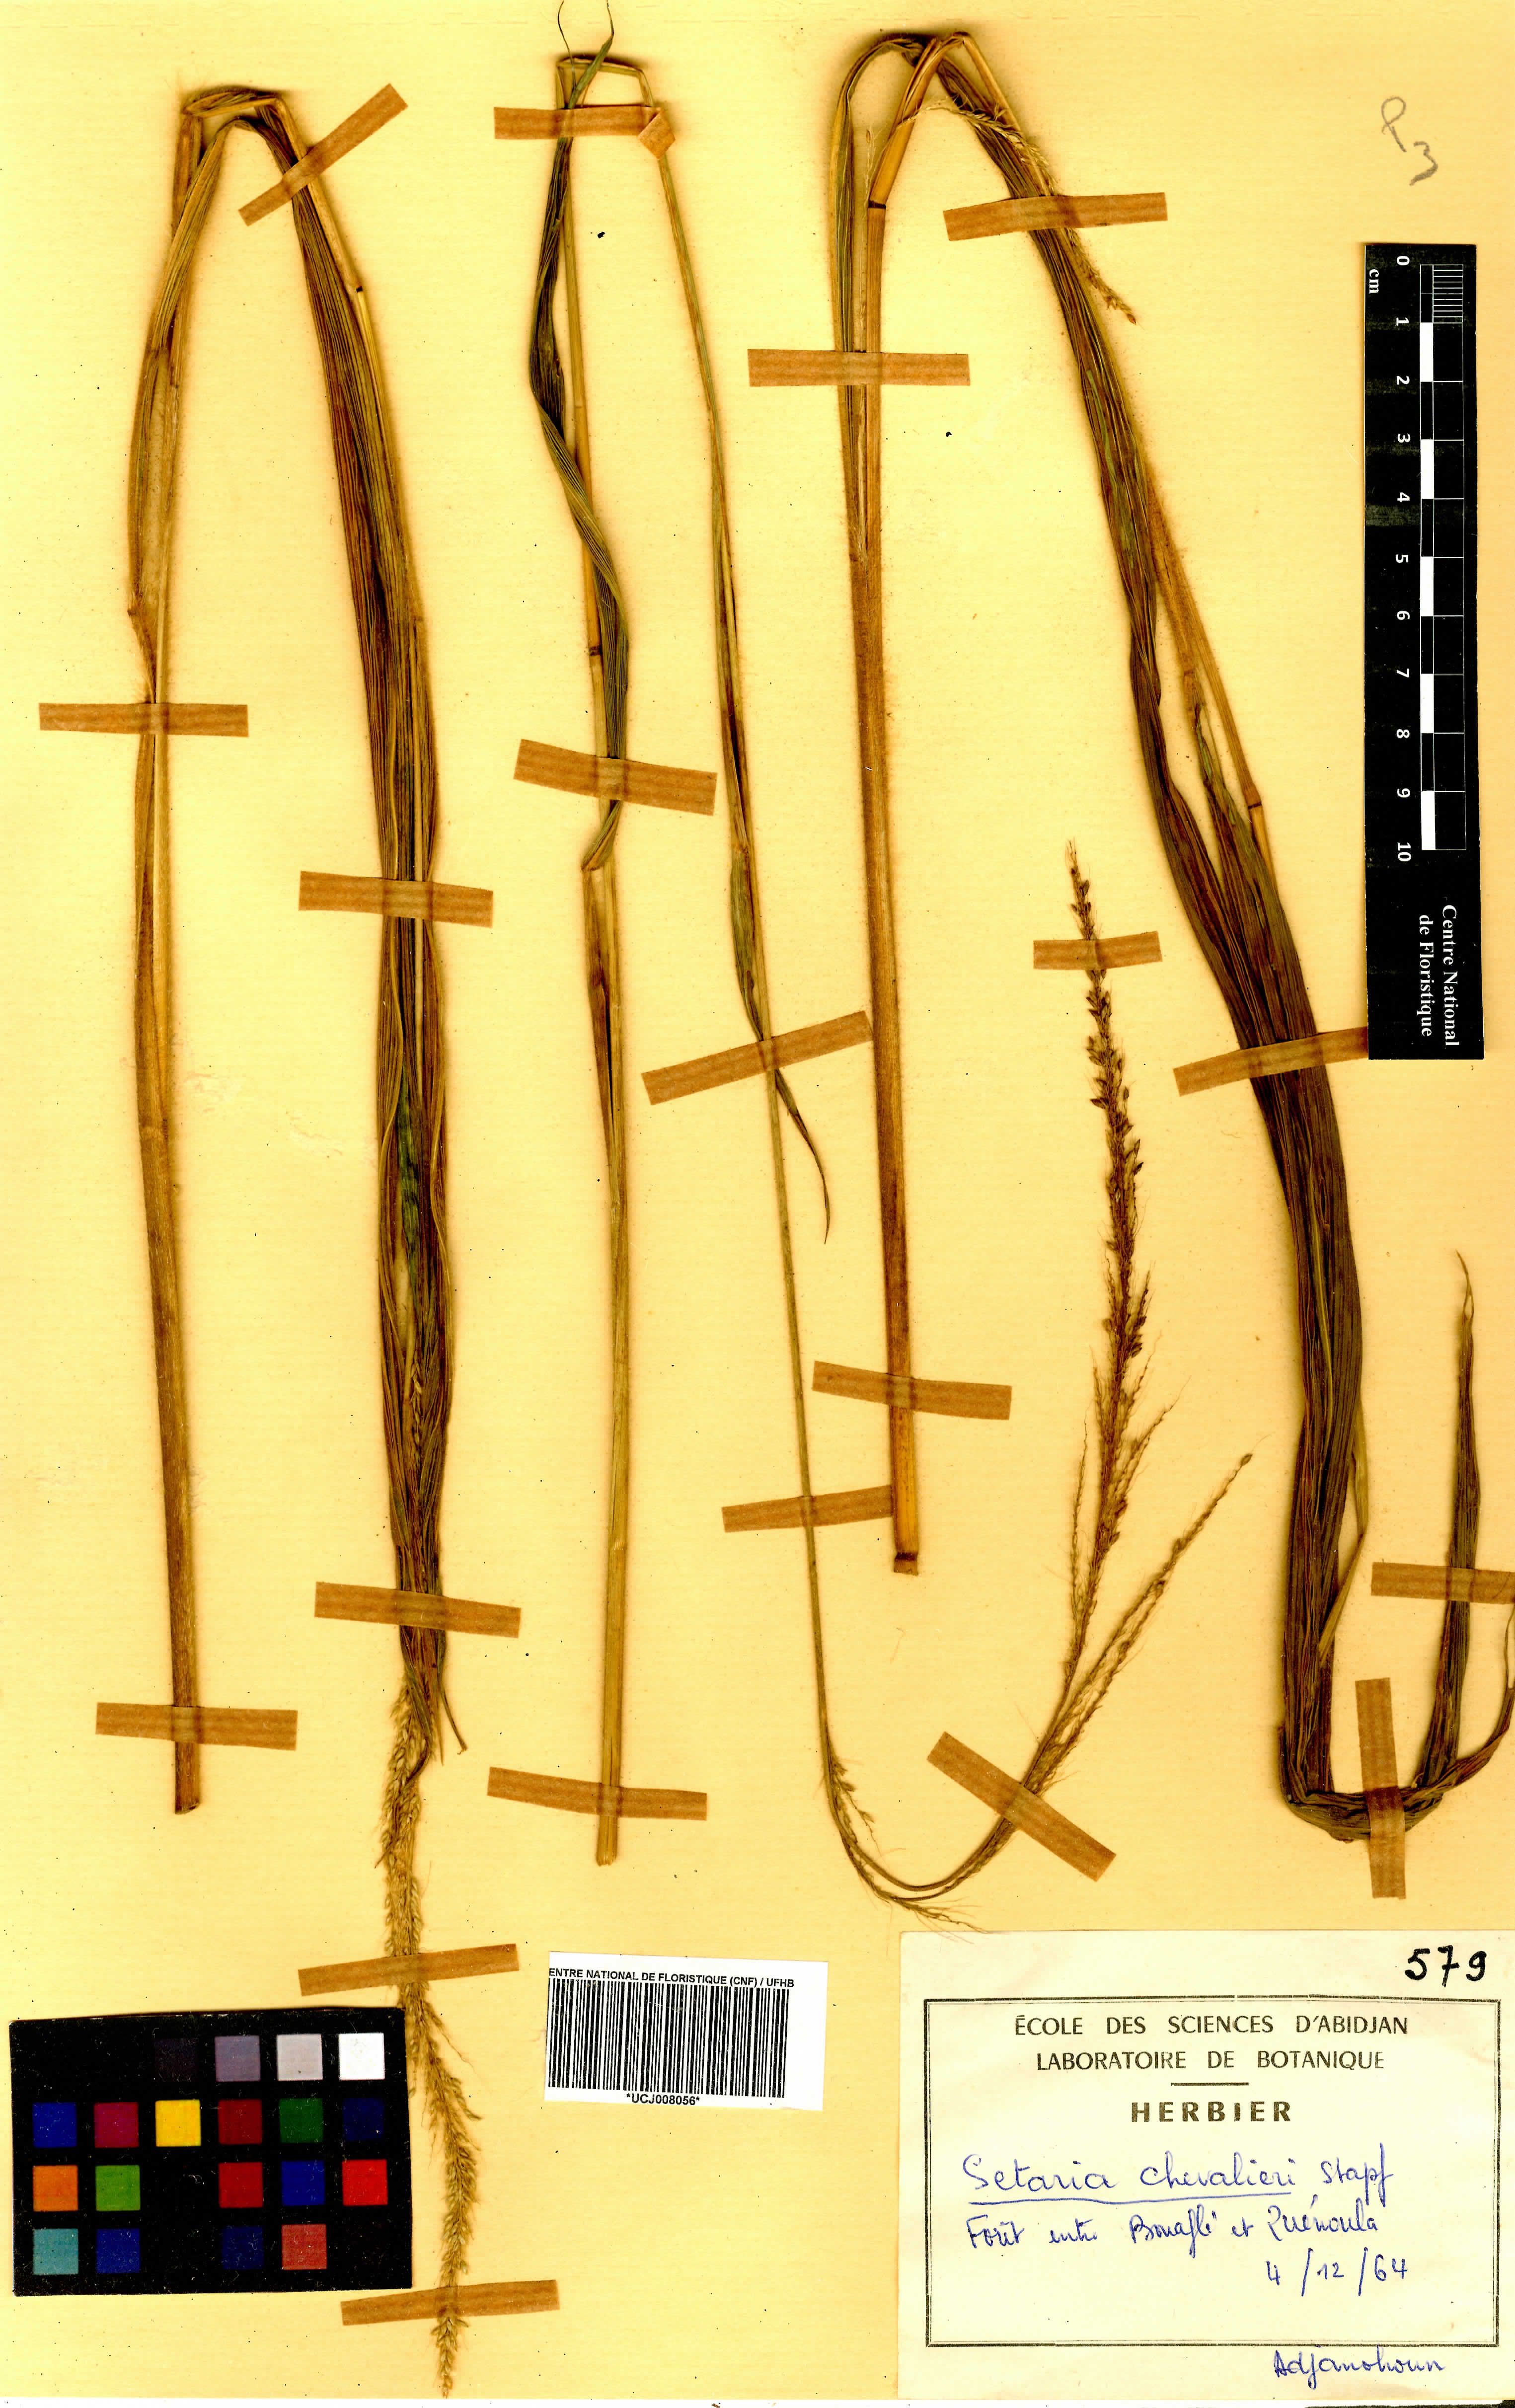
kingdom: Plantae
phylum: Tracheophyta
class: Liliopsida
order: Poales
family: Poaceae
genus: Setaria
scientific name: Setaria megaphylla
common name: Bigleaf bristlegrass
